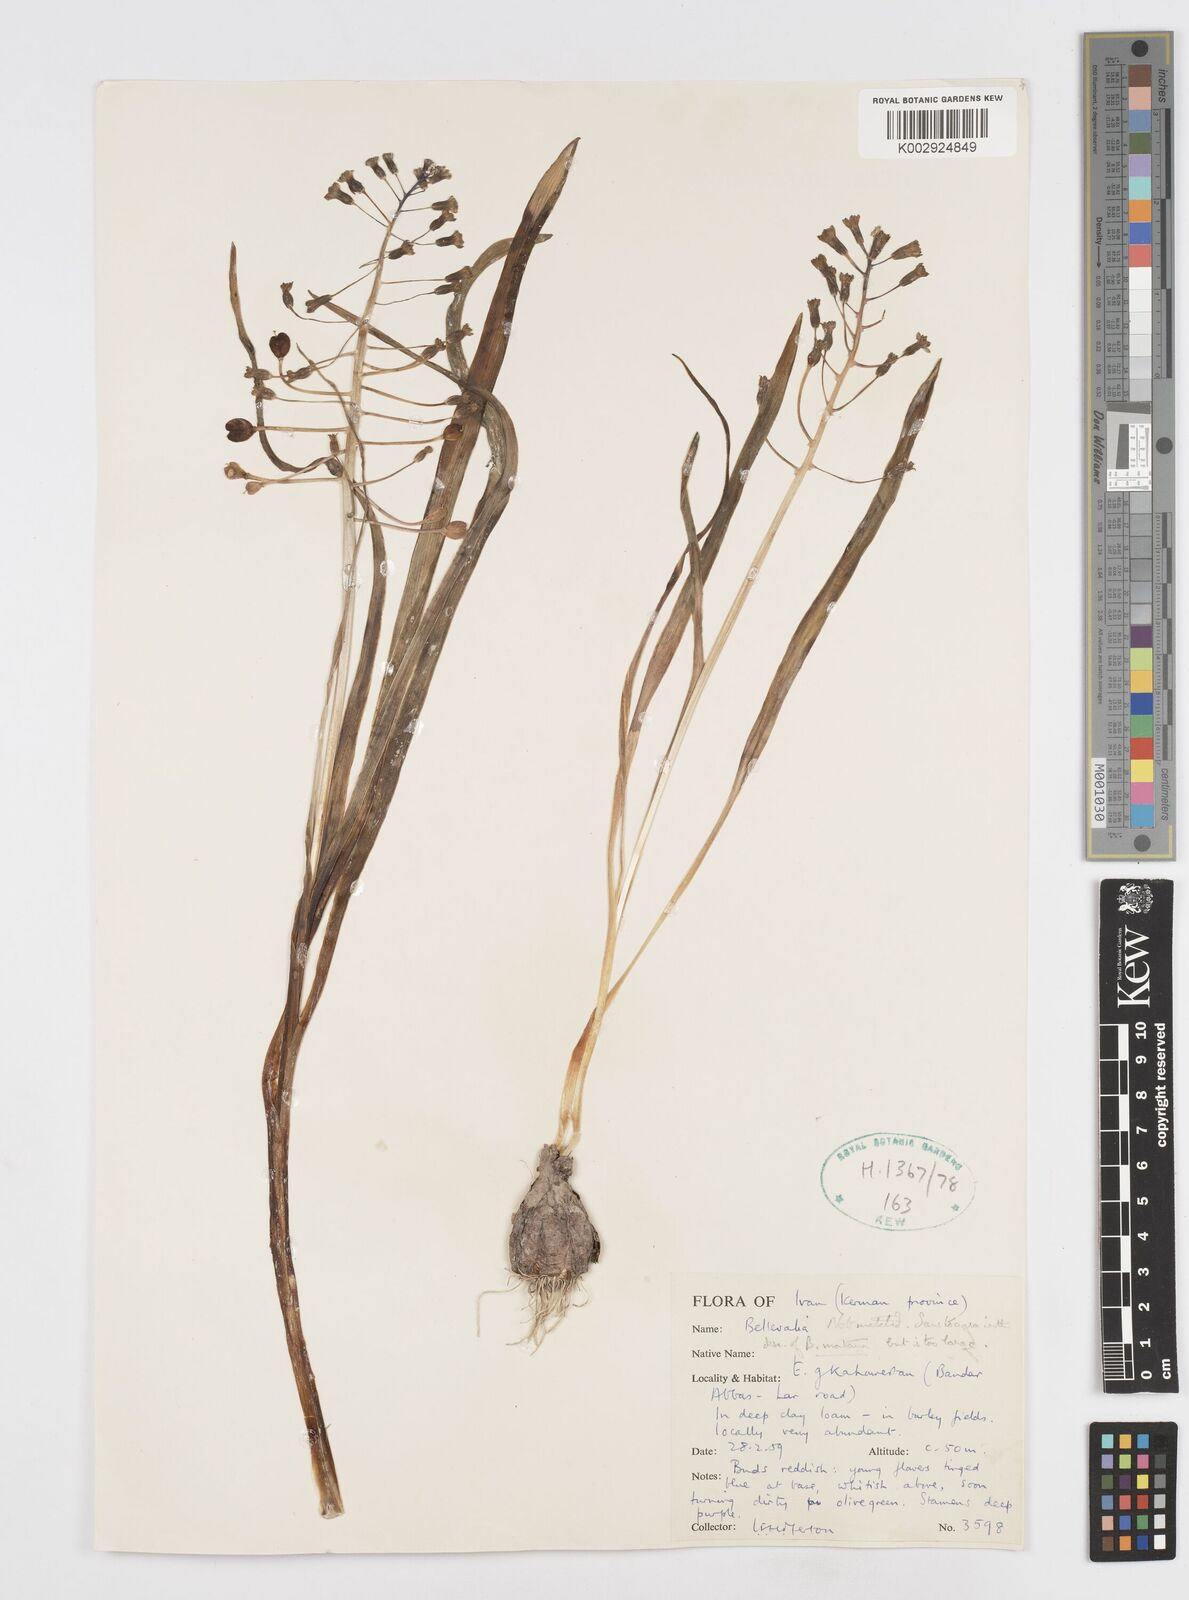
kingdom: Plantae
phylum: Tracheophyta
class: Liliopsida
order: Asparagales
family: Asparagaceae
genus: Bellevalia
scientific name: Bellevalia
